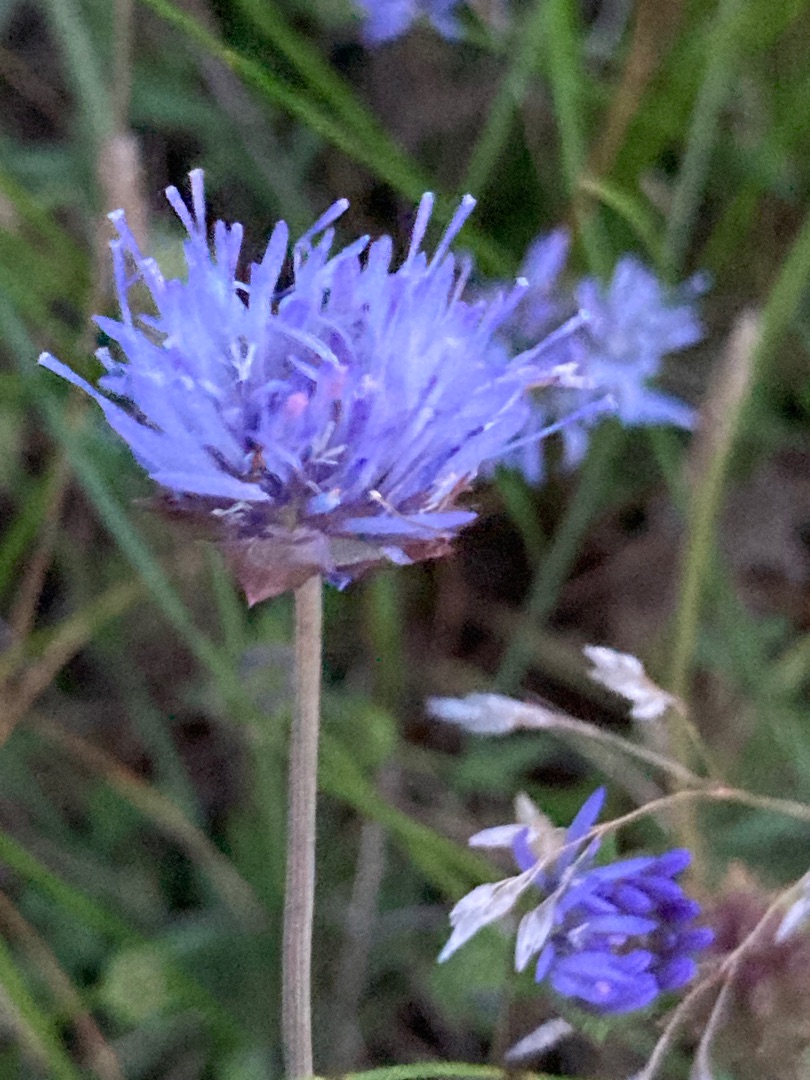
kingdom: Plantae
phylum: Tracheophyta
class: Magnoliopsida
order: Asterales
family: Campanulaceae
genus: Jasione
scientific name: Jasione montana
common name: Blåmunke
